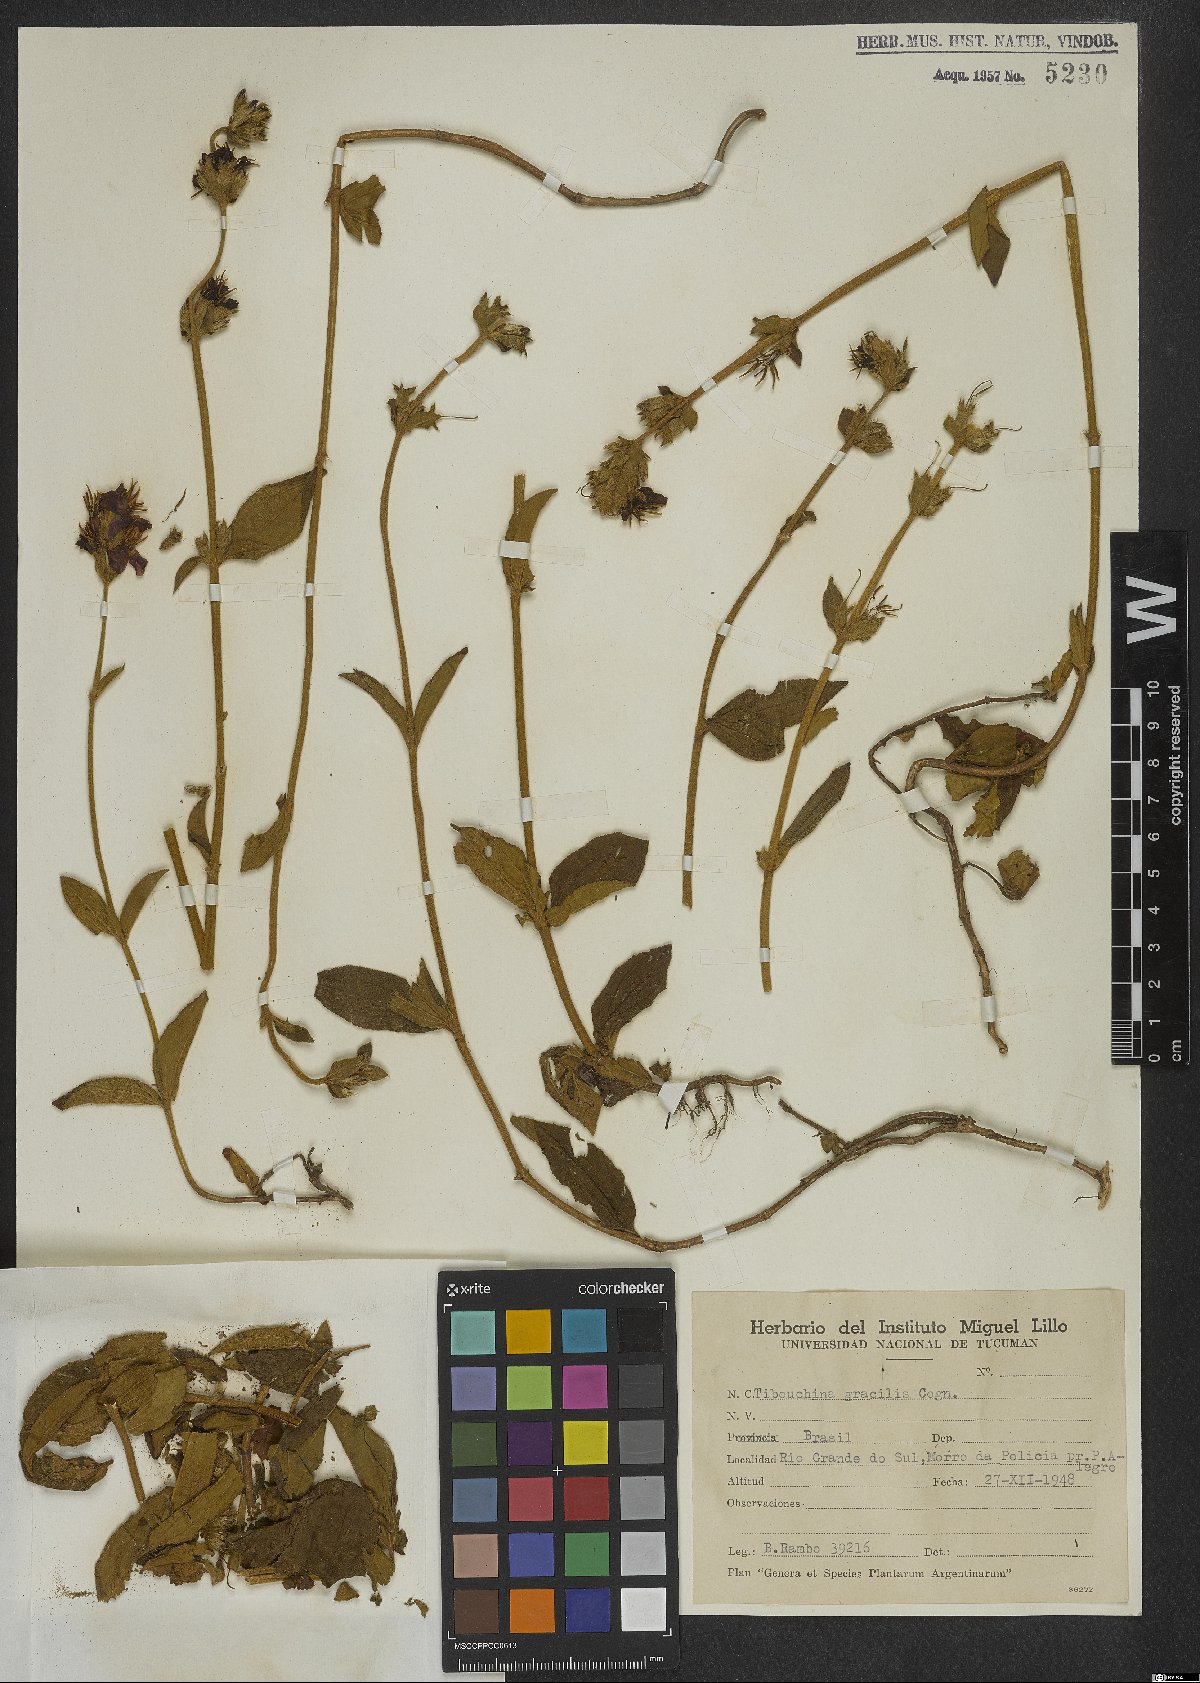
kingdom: Plantae
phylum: Tracheophyta
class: Magnoliopsida
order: Myrtales
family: Melastomataceae
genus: Chaetogastra
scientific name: Chaetogastra gracilis
